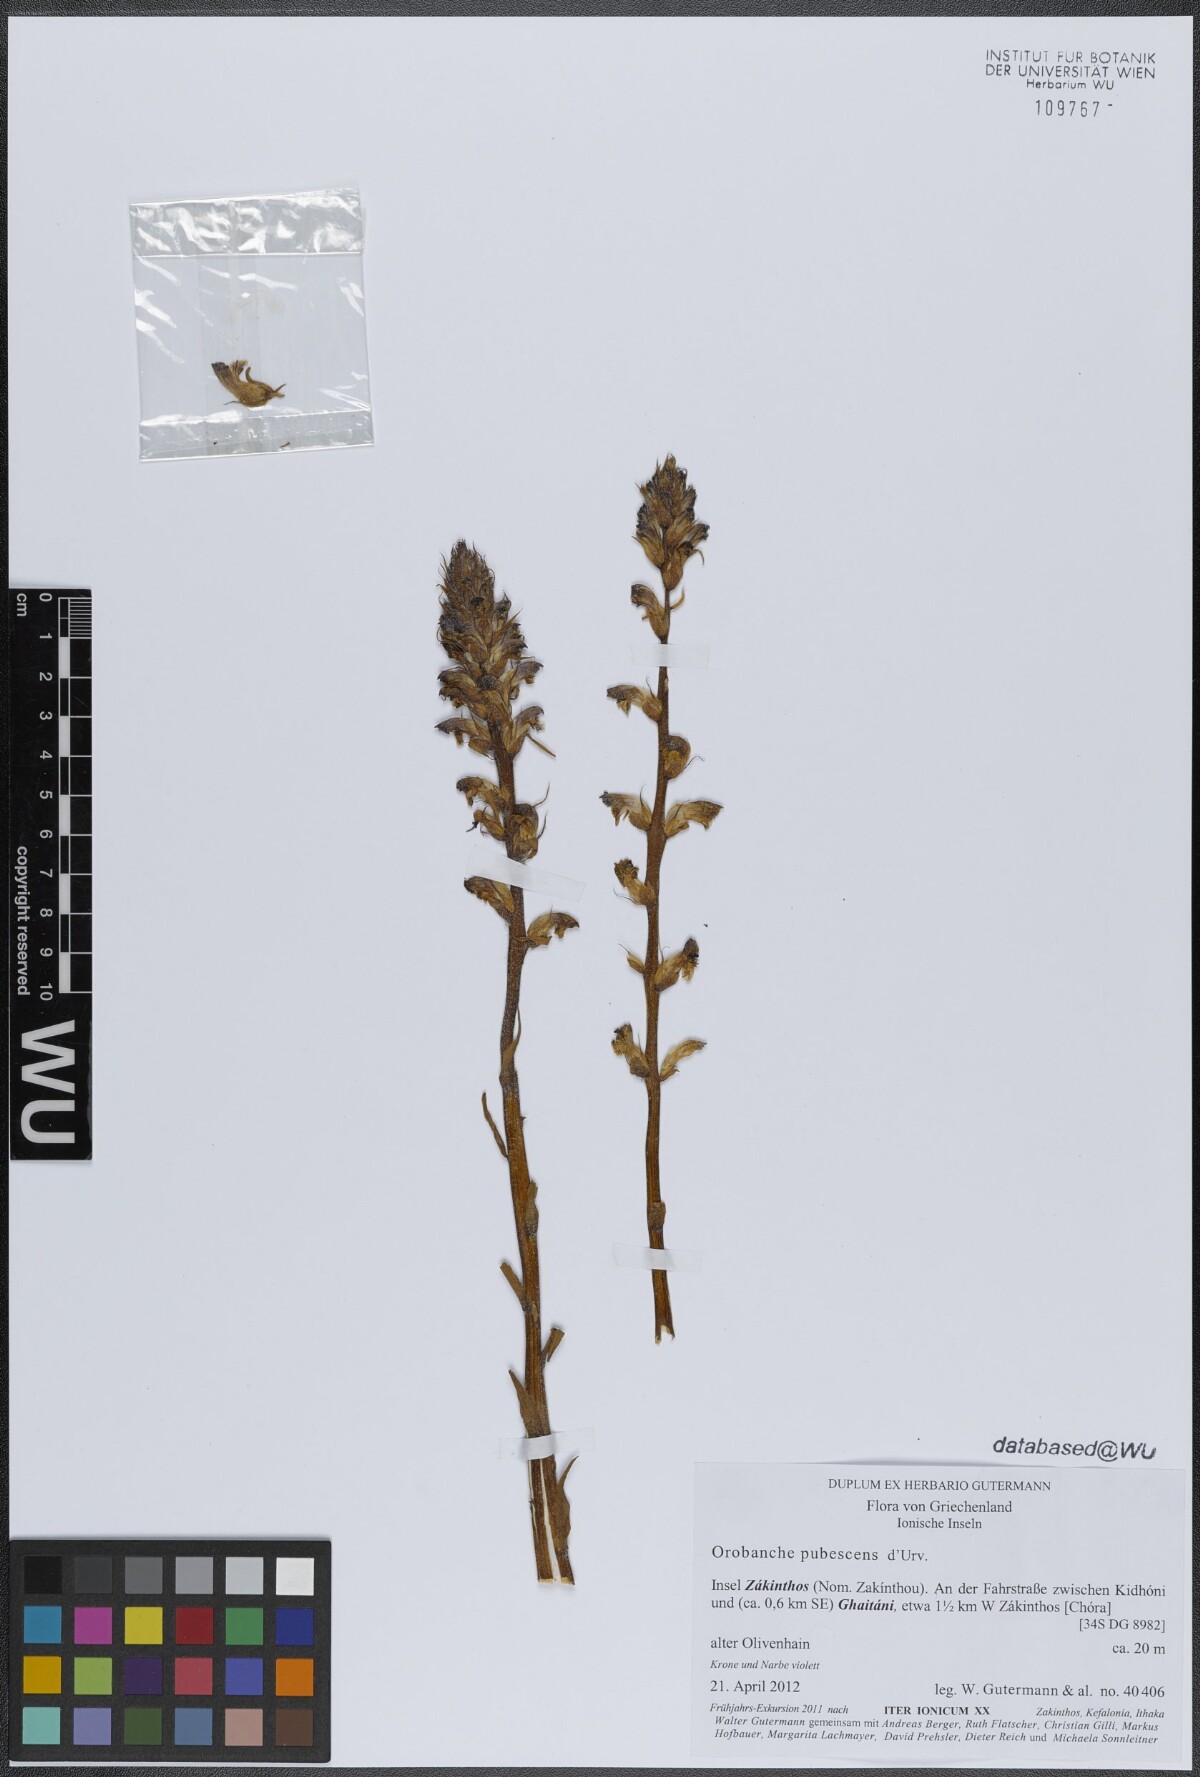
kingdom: Plantae
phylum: Tracheophyta
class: Magnoliopsida
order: Lamiales
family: Orobanchaceae
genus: Orobanche
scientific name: Orobanche pubescens
